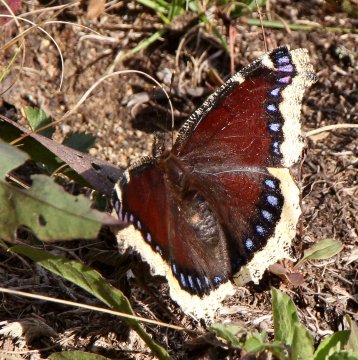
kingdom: Animalia
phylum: Arthropoda
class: Insecta
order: Lepidoptera
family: Nymphalidae
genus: Nymphalis
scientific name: Nymphalis antiopa
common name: Mourning Cloak
